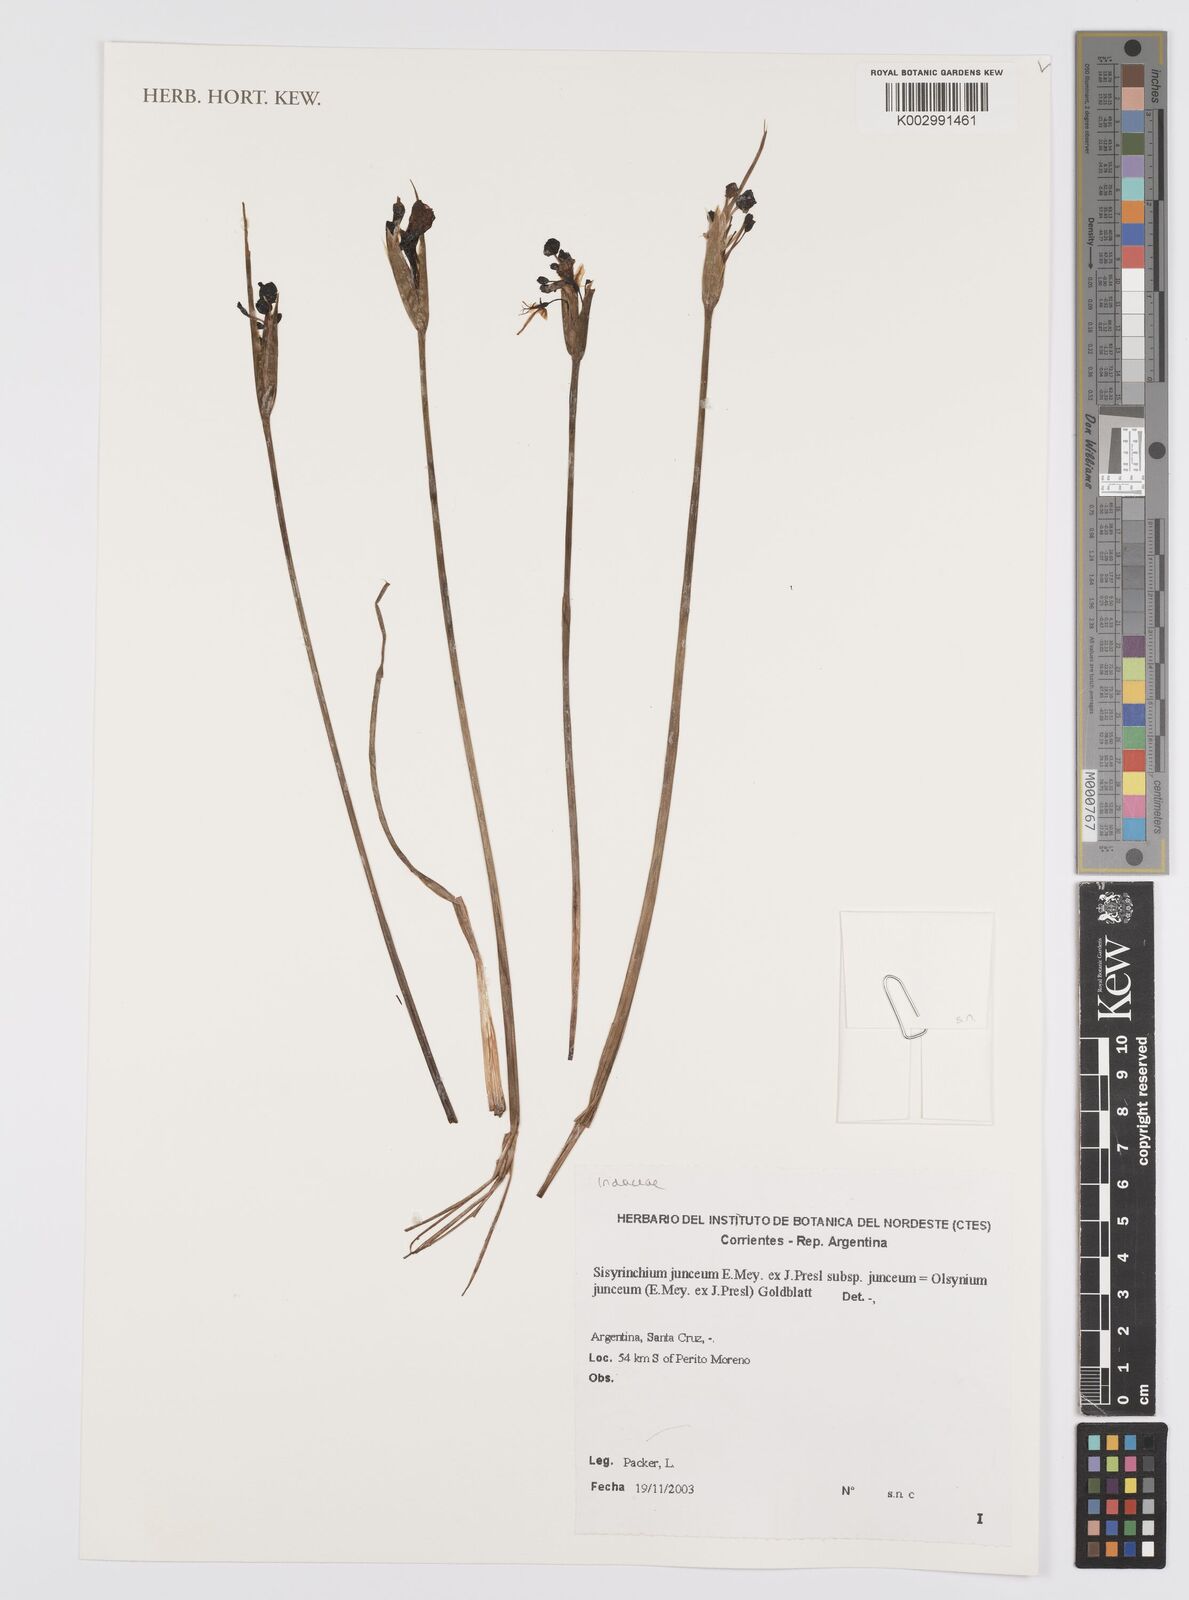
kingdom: Plantae
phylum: Tracheophyta
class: Liliopsida
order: Asparagales
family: Iridaceae
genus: Olsynium
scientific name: Olsynium junceum
